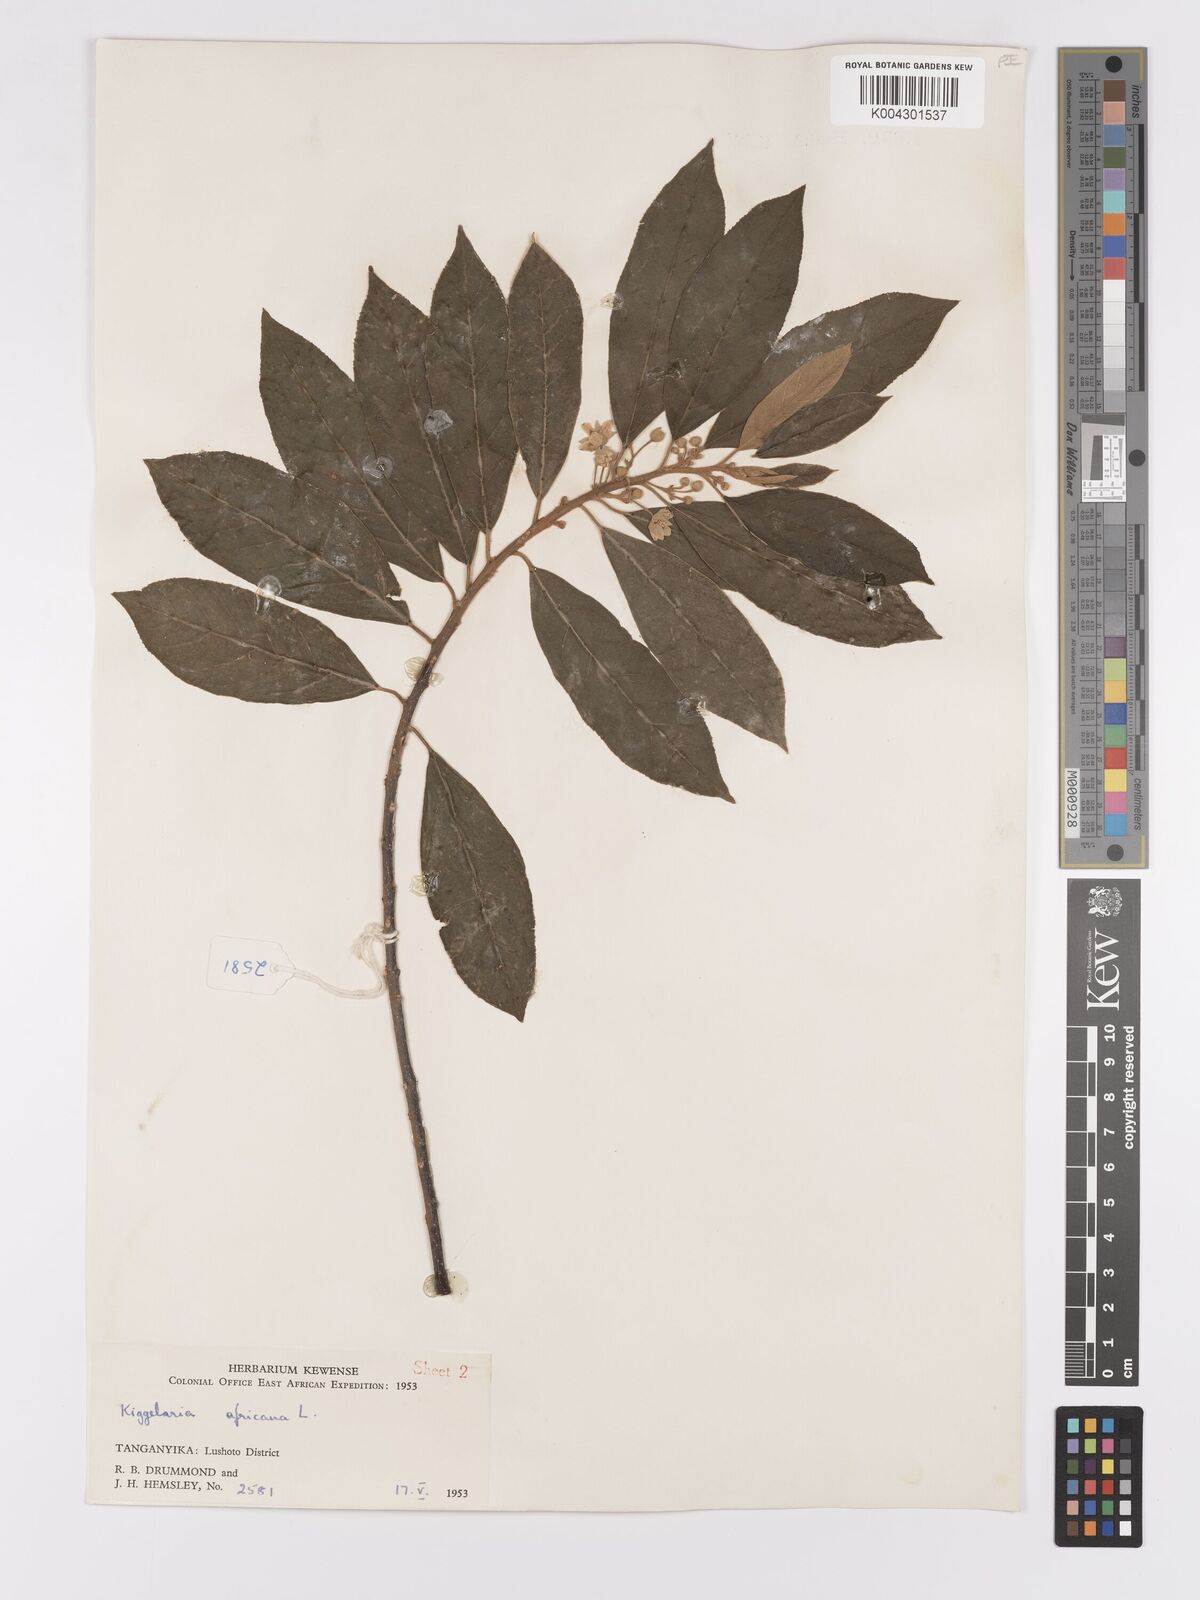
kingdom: Plantae
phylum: Tracheophyta
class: Magnoliopsida
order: Malpighiales
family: Achariaceae
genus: Kiggelaria
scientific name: Kiggelaria africana
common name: Wild peach
